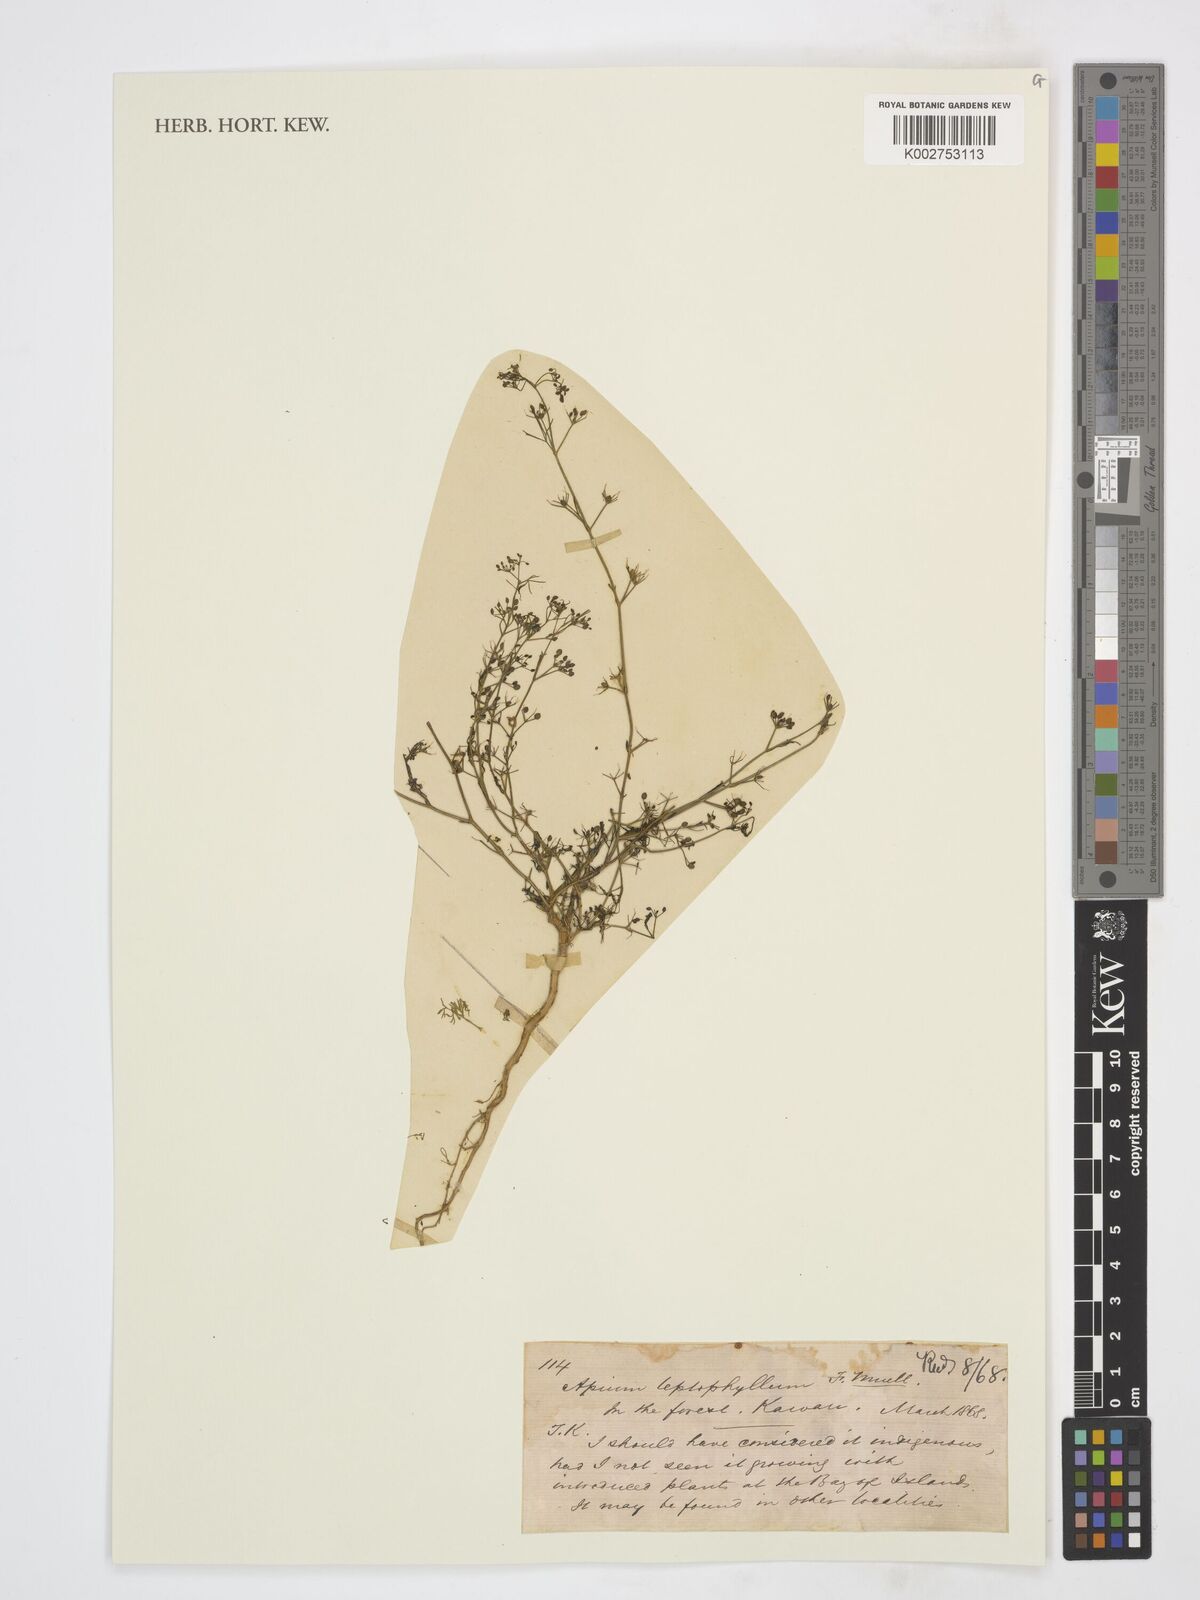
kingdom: Plantae
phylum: Tracheophyta
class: Magnoliopsida
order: Apiales
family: Apiaceae
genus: Cyclospermum
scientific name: Cyclospermum leptophyllum
